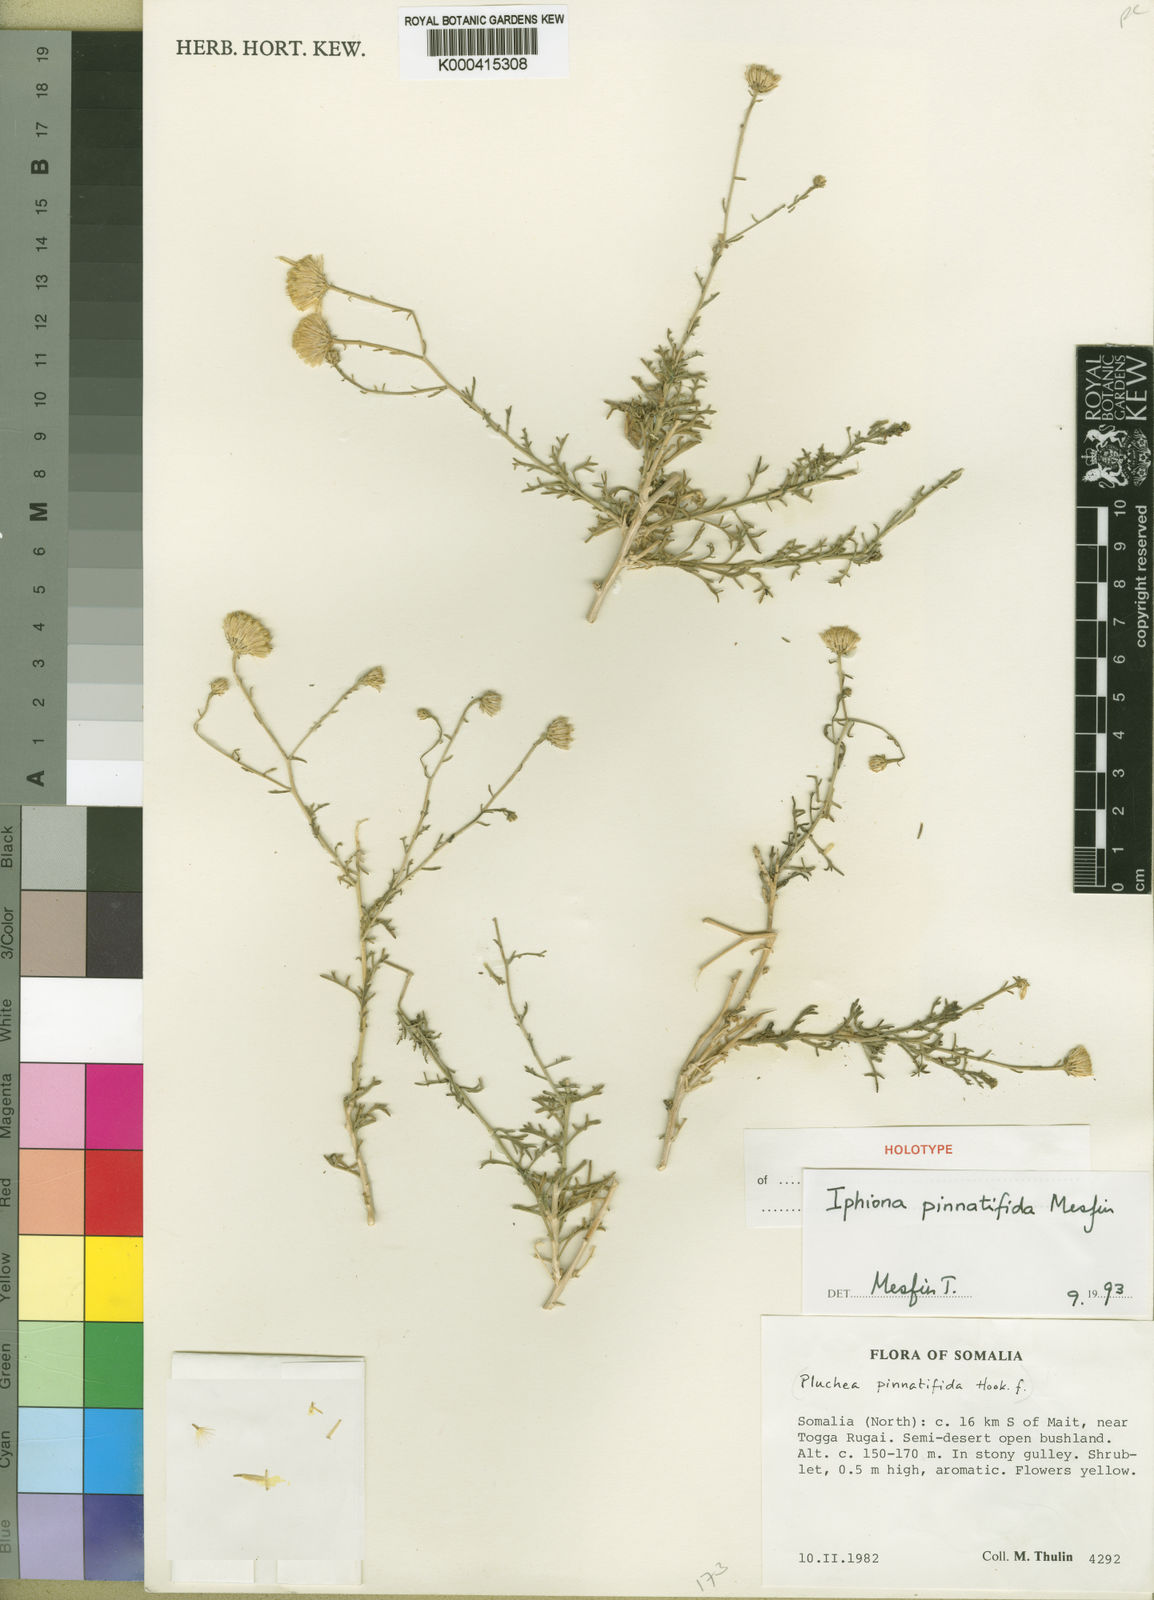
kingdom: Plantae
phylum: Tracheophyta
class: Magnoliopsida
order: Asterales
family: Asteraceae
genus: Iphiona
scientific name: Iphiona pinnatifida
